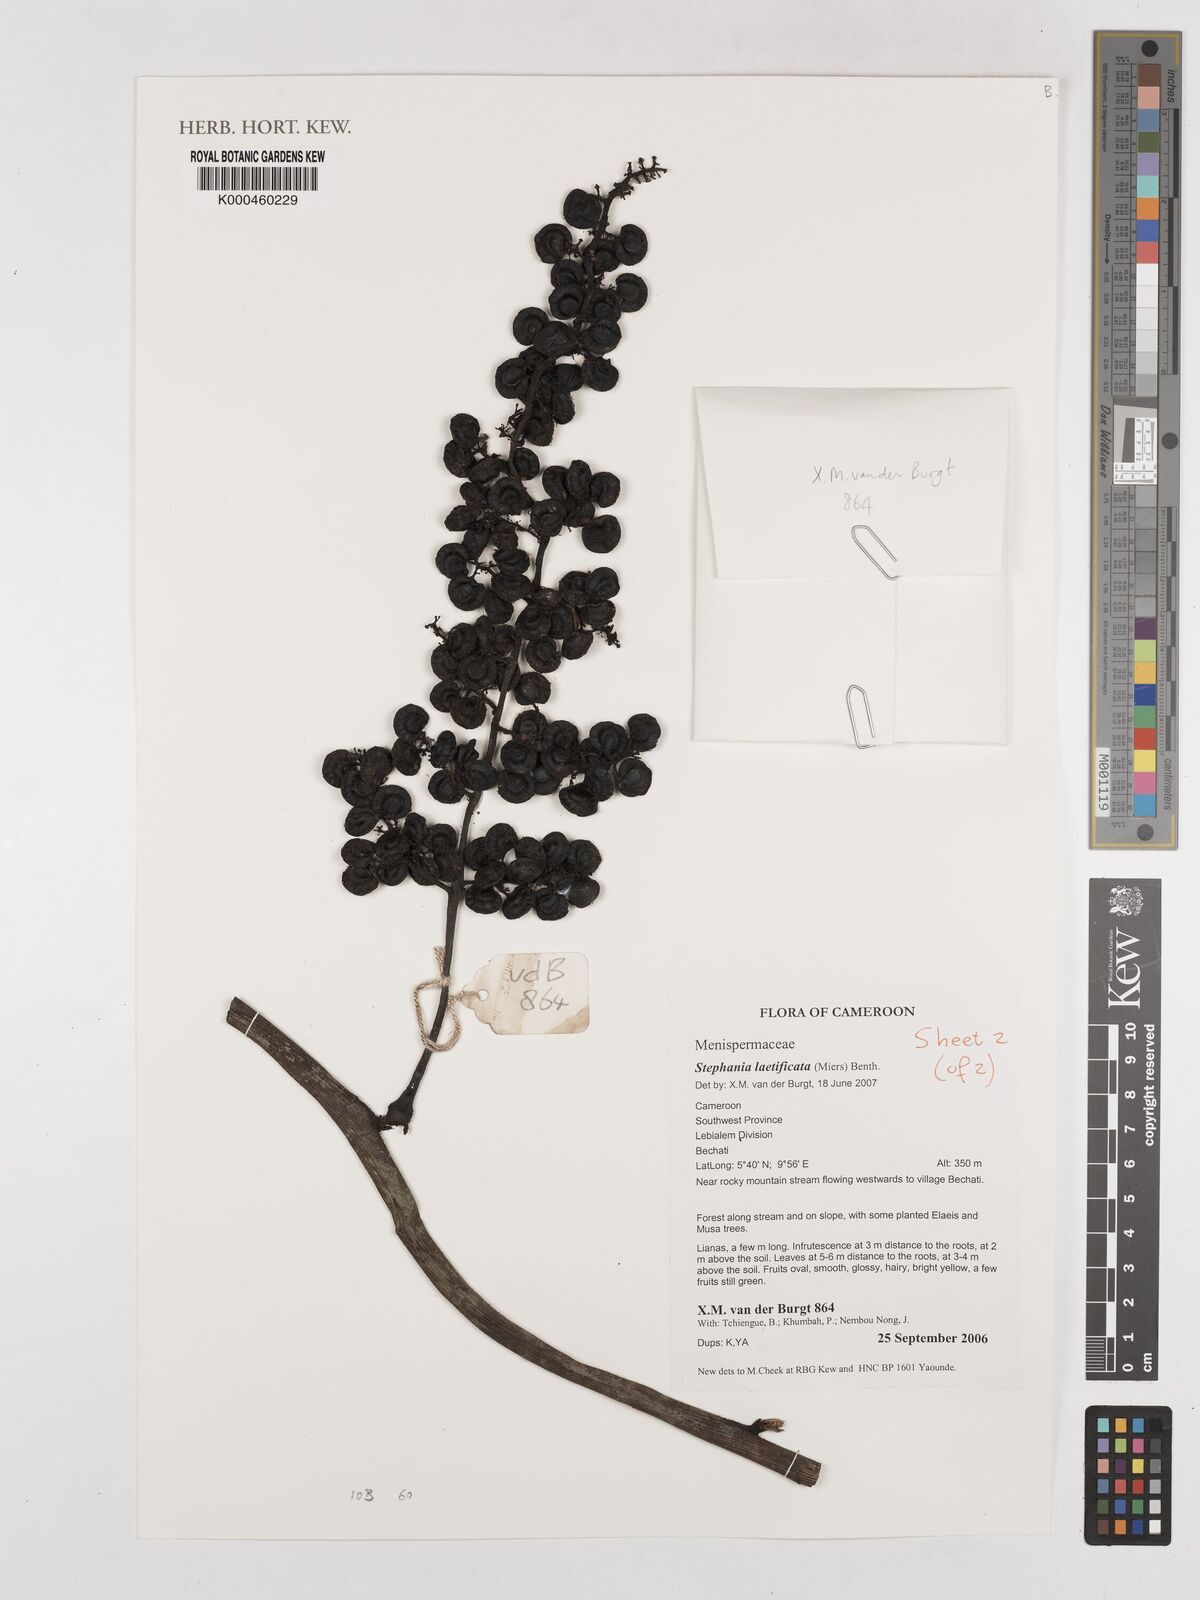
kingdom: Plantae
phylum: Tracheophyta
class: Magnoliopsida
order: Ranunculales
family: Menispermaceae
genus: Perichasma
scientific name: Perichasma laetificata
